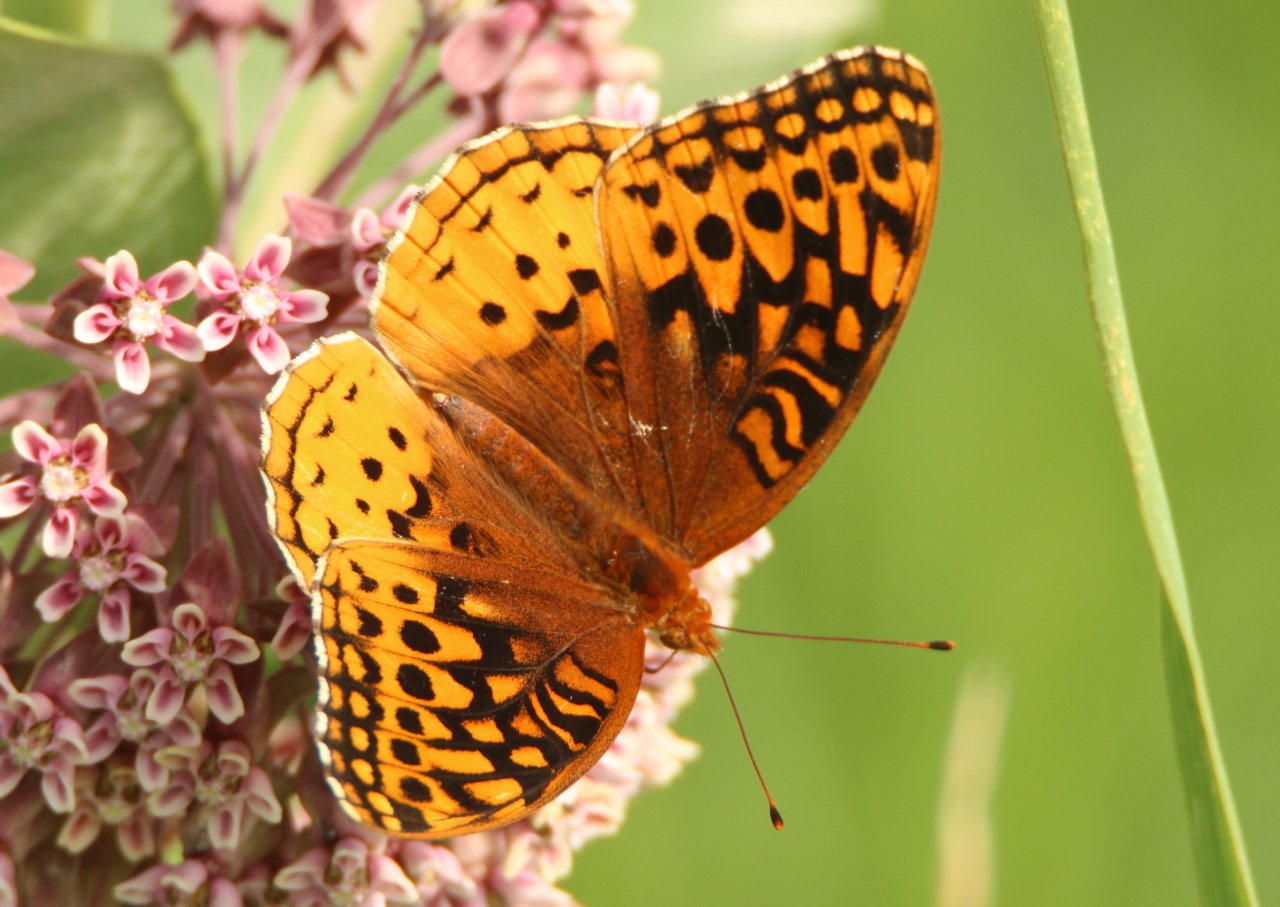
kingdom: Animalia
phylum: Arthropoda
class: Insecta
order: Lepidoptera
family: Nymphalidae
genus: Speyeria
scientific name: Speyeria cybele
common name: Great Spangled Fritillary
